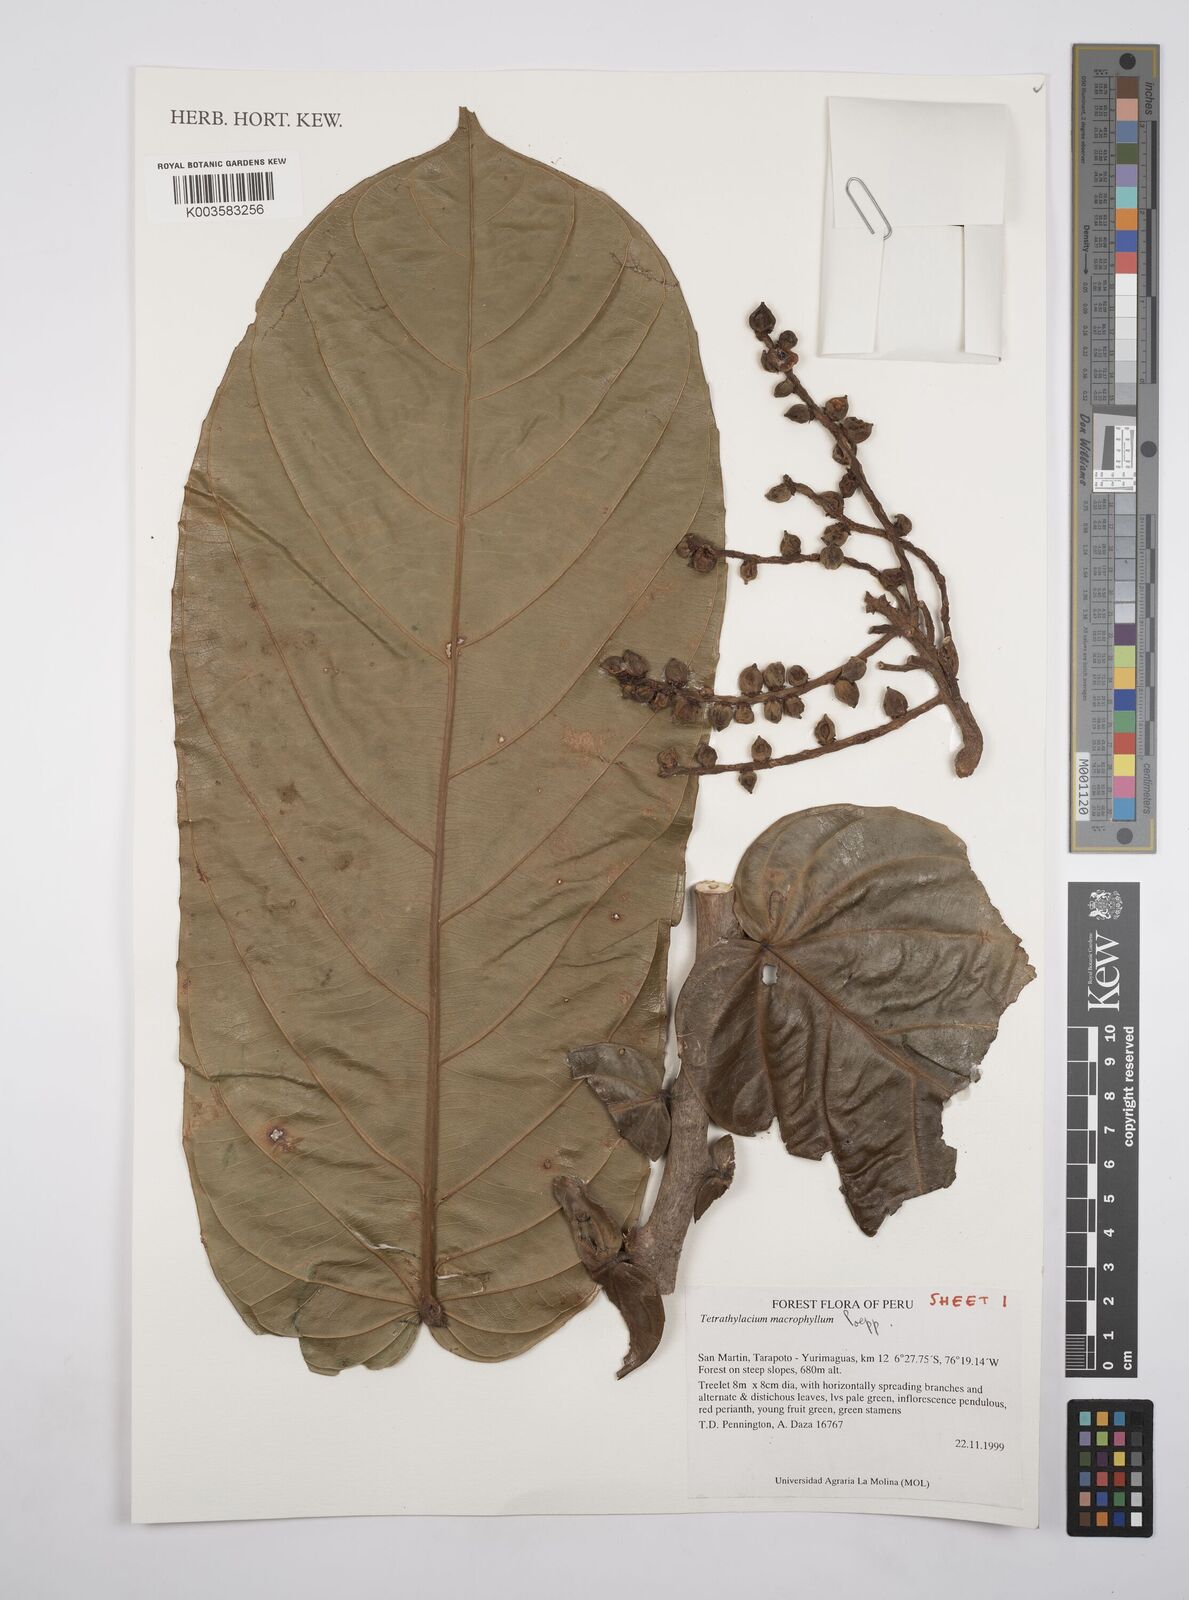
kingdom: Plantae
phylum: Tracheophyta
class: Magnoliopsida
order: Malpighiales
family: Salicaceae
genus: Tetrathylacium
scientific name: Tetrathylacium macrophyllum
